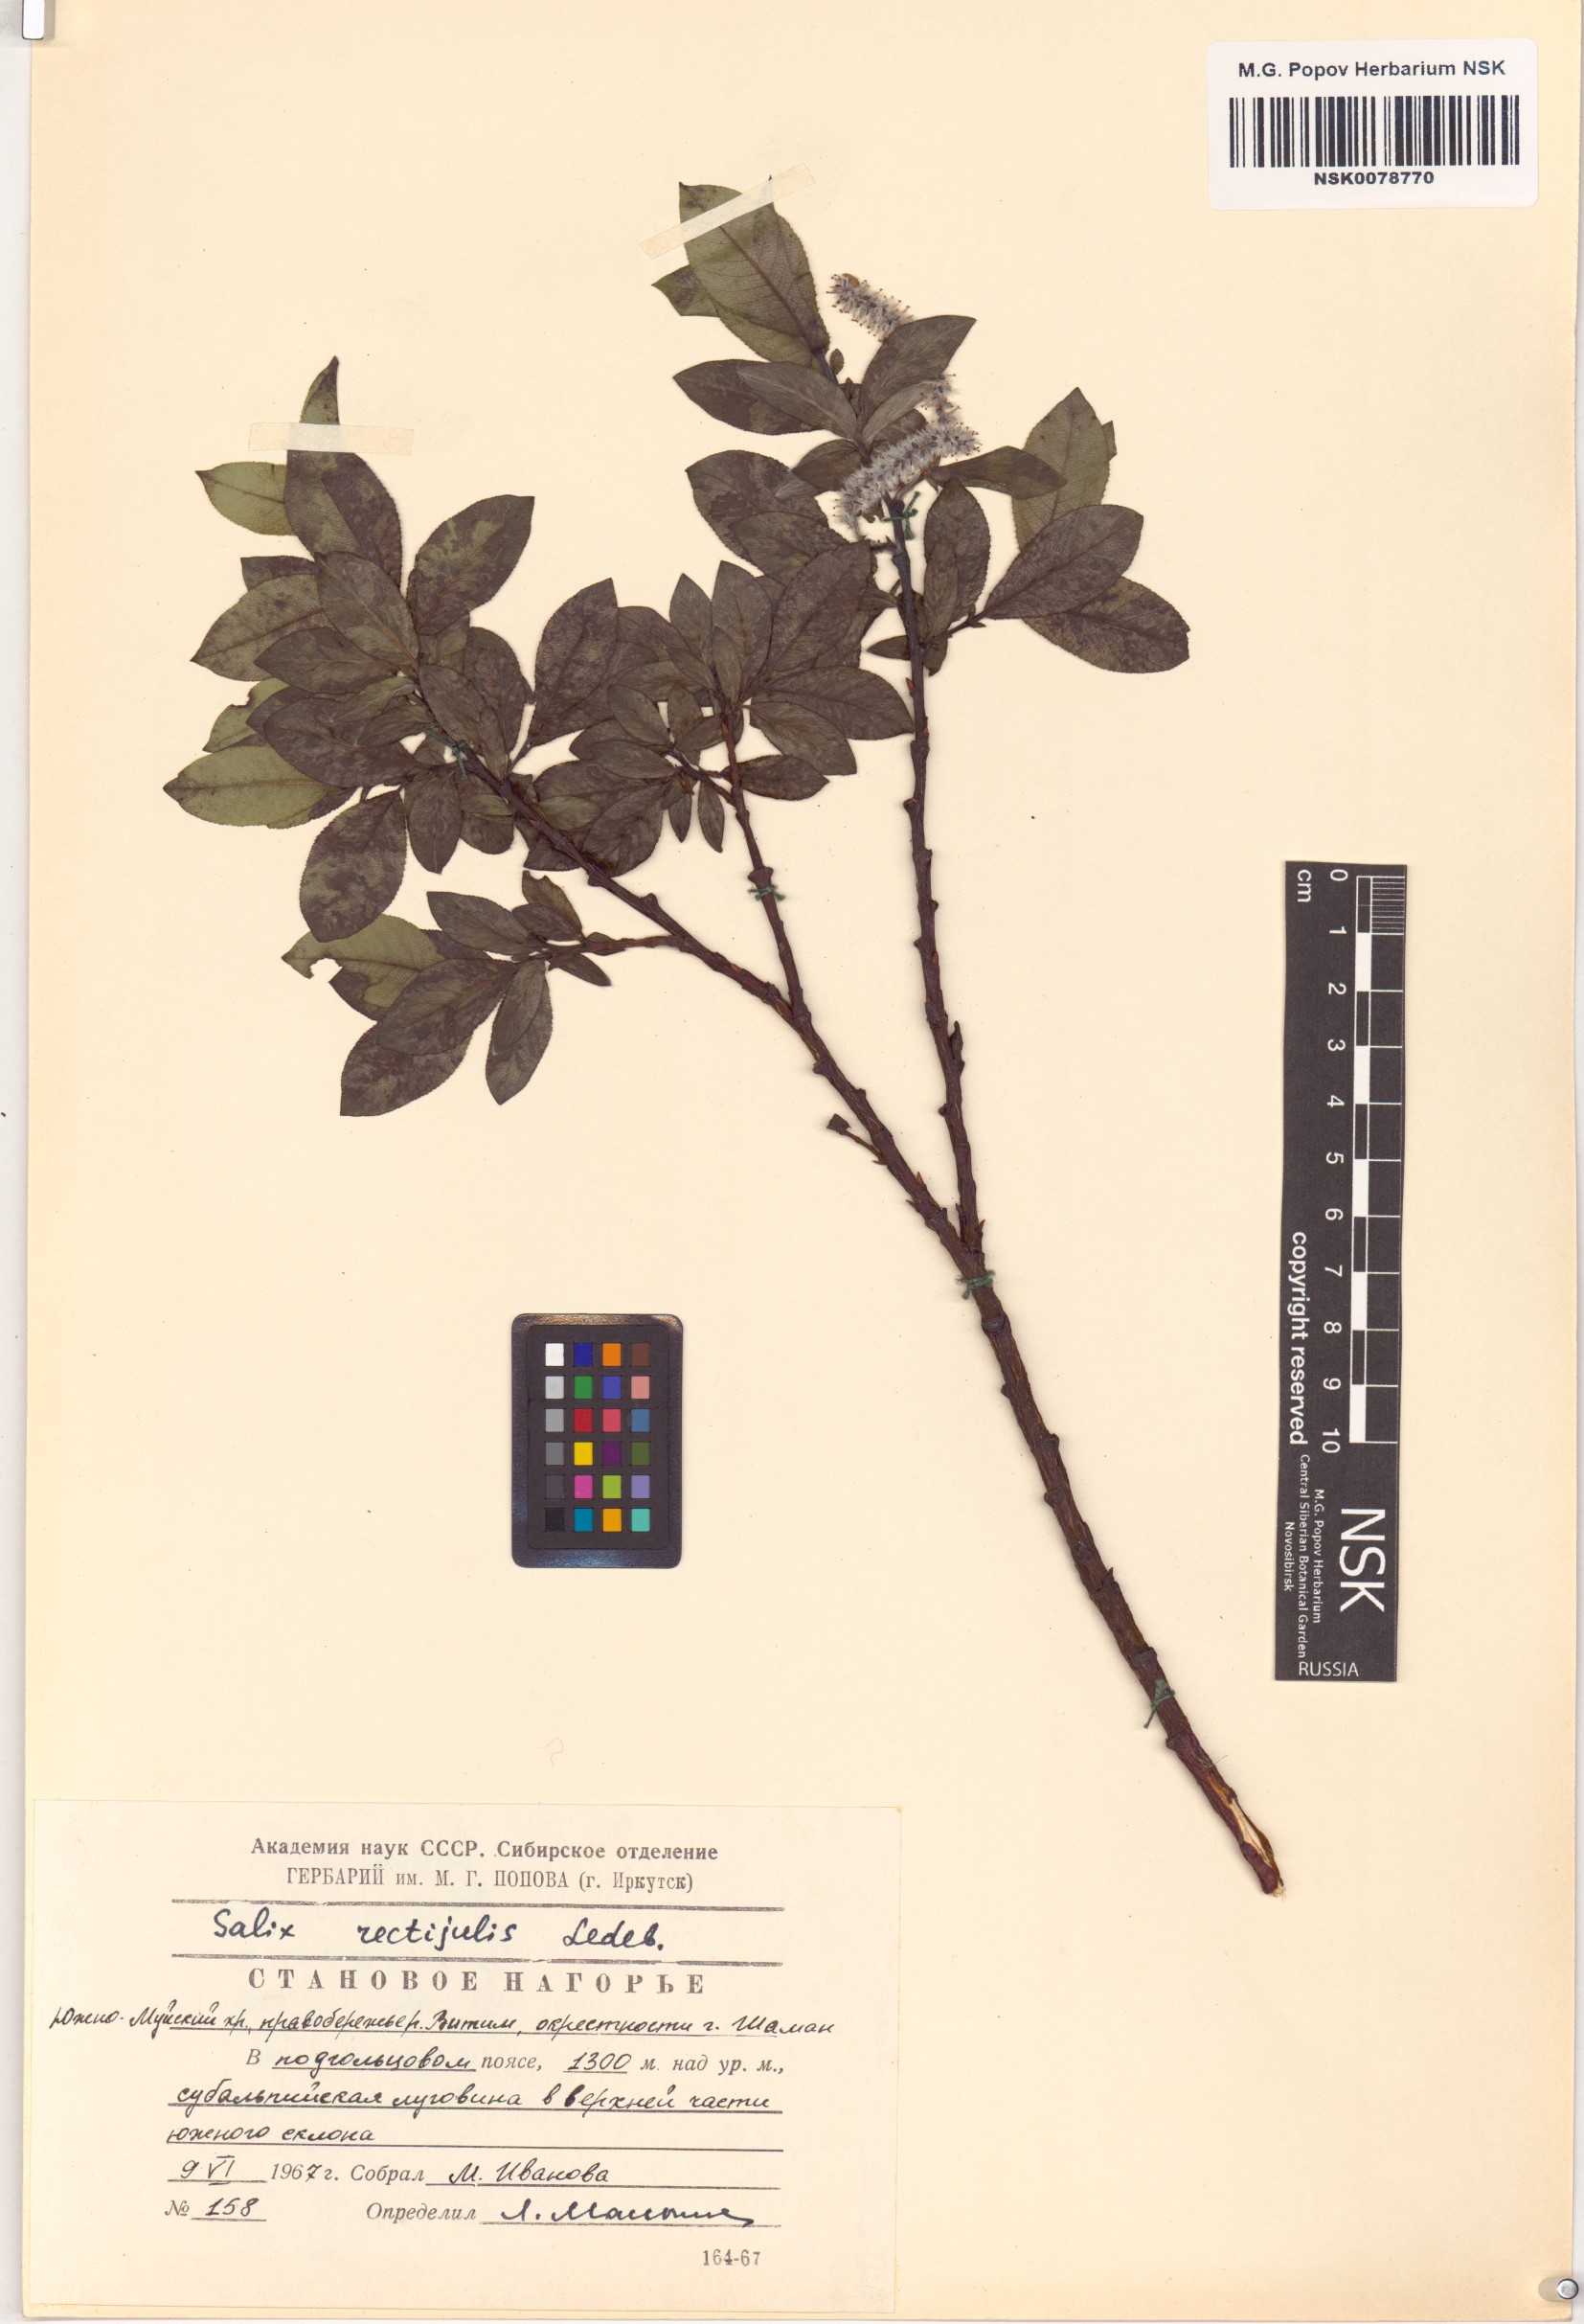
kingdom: Plantae
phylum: Tracheophyta
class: Magnoliopsida
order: Malpighiales
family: Salicaceae
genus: Salix
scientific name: Salix rectijulis
